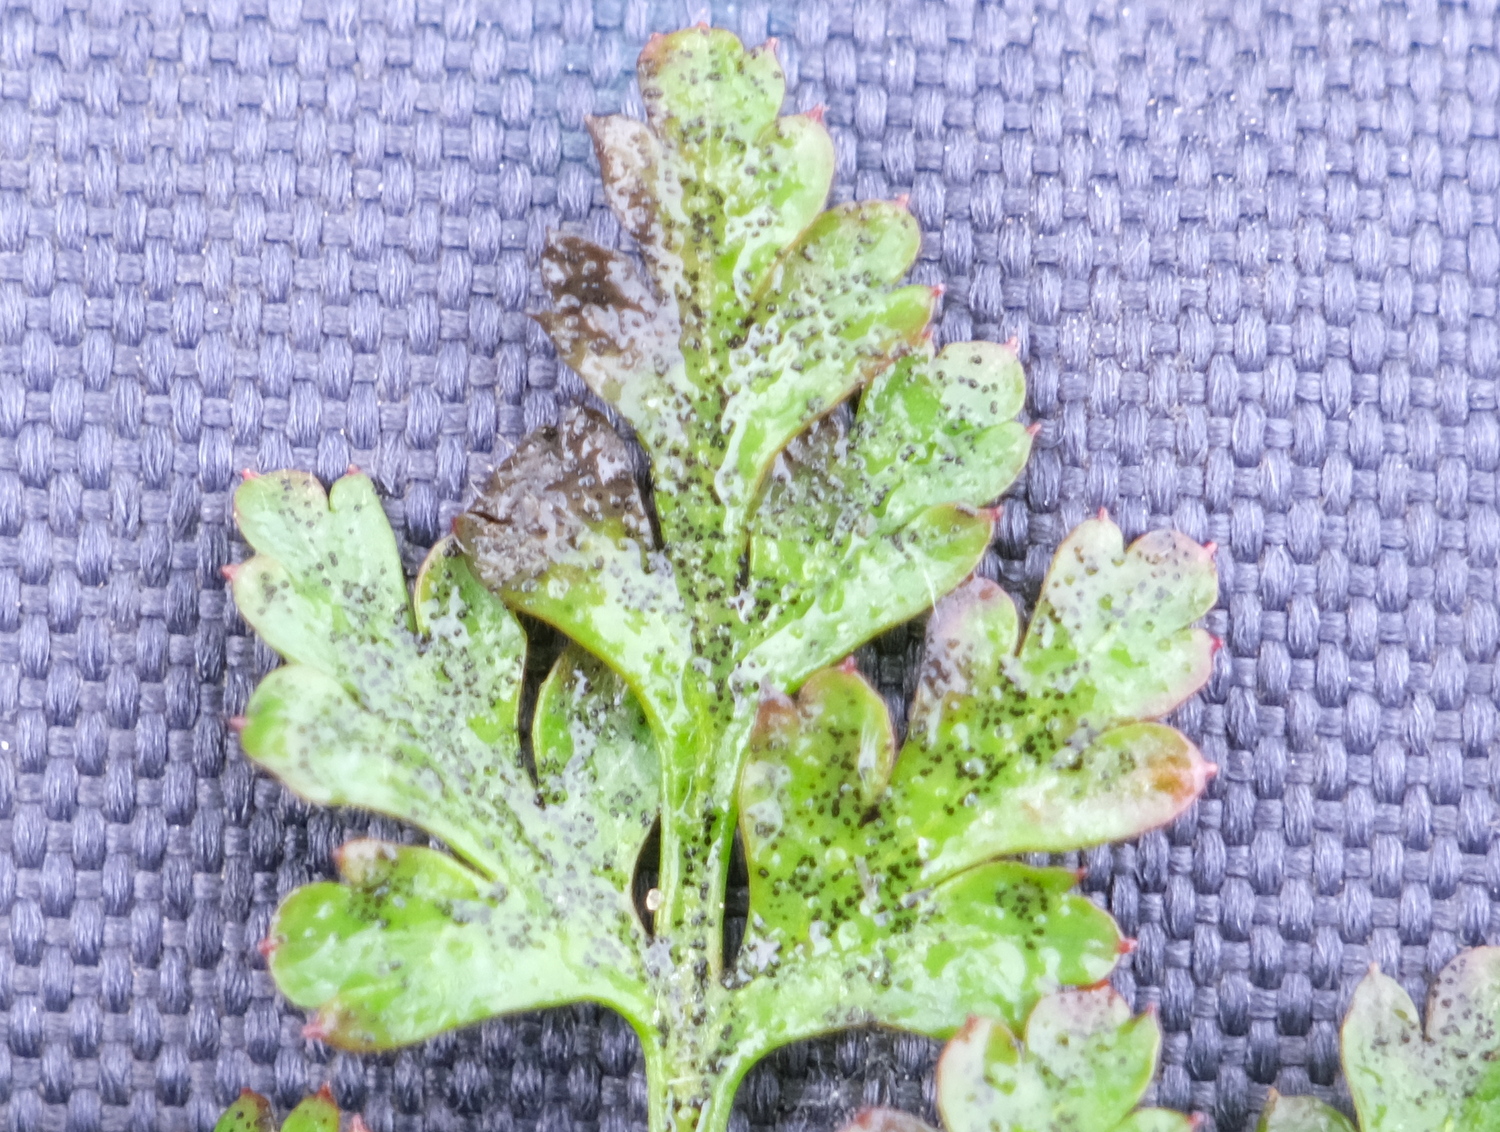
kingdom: Fungi
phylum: Ascomycota
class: Dothideomycetes
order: Venturiales
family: Venturiaceae
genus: Coleroa
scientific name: Coleroa robertiani
